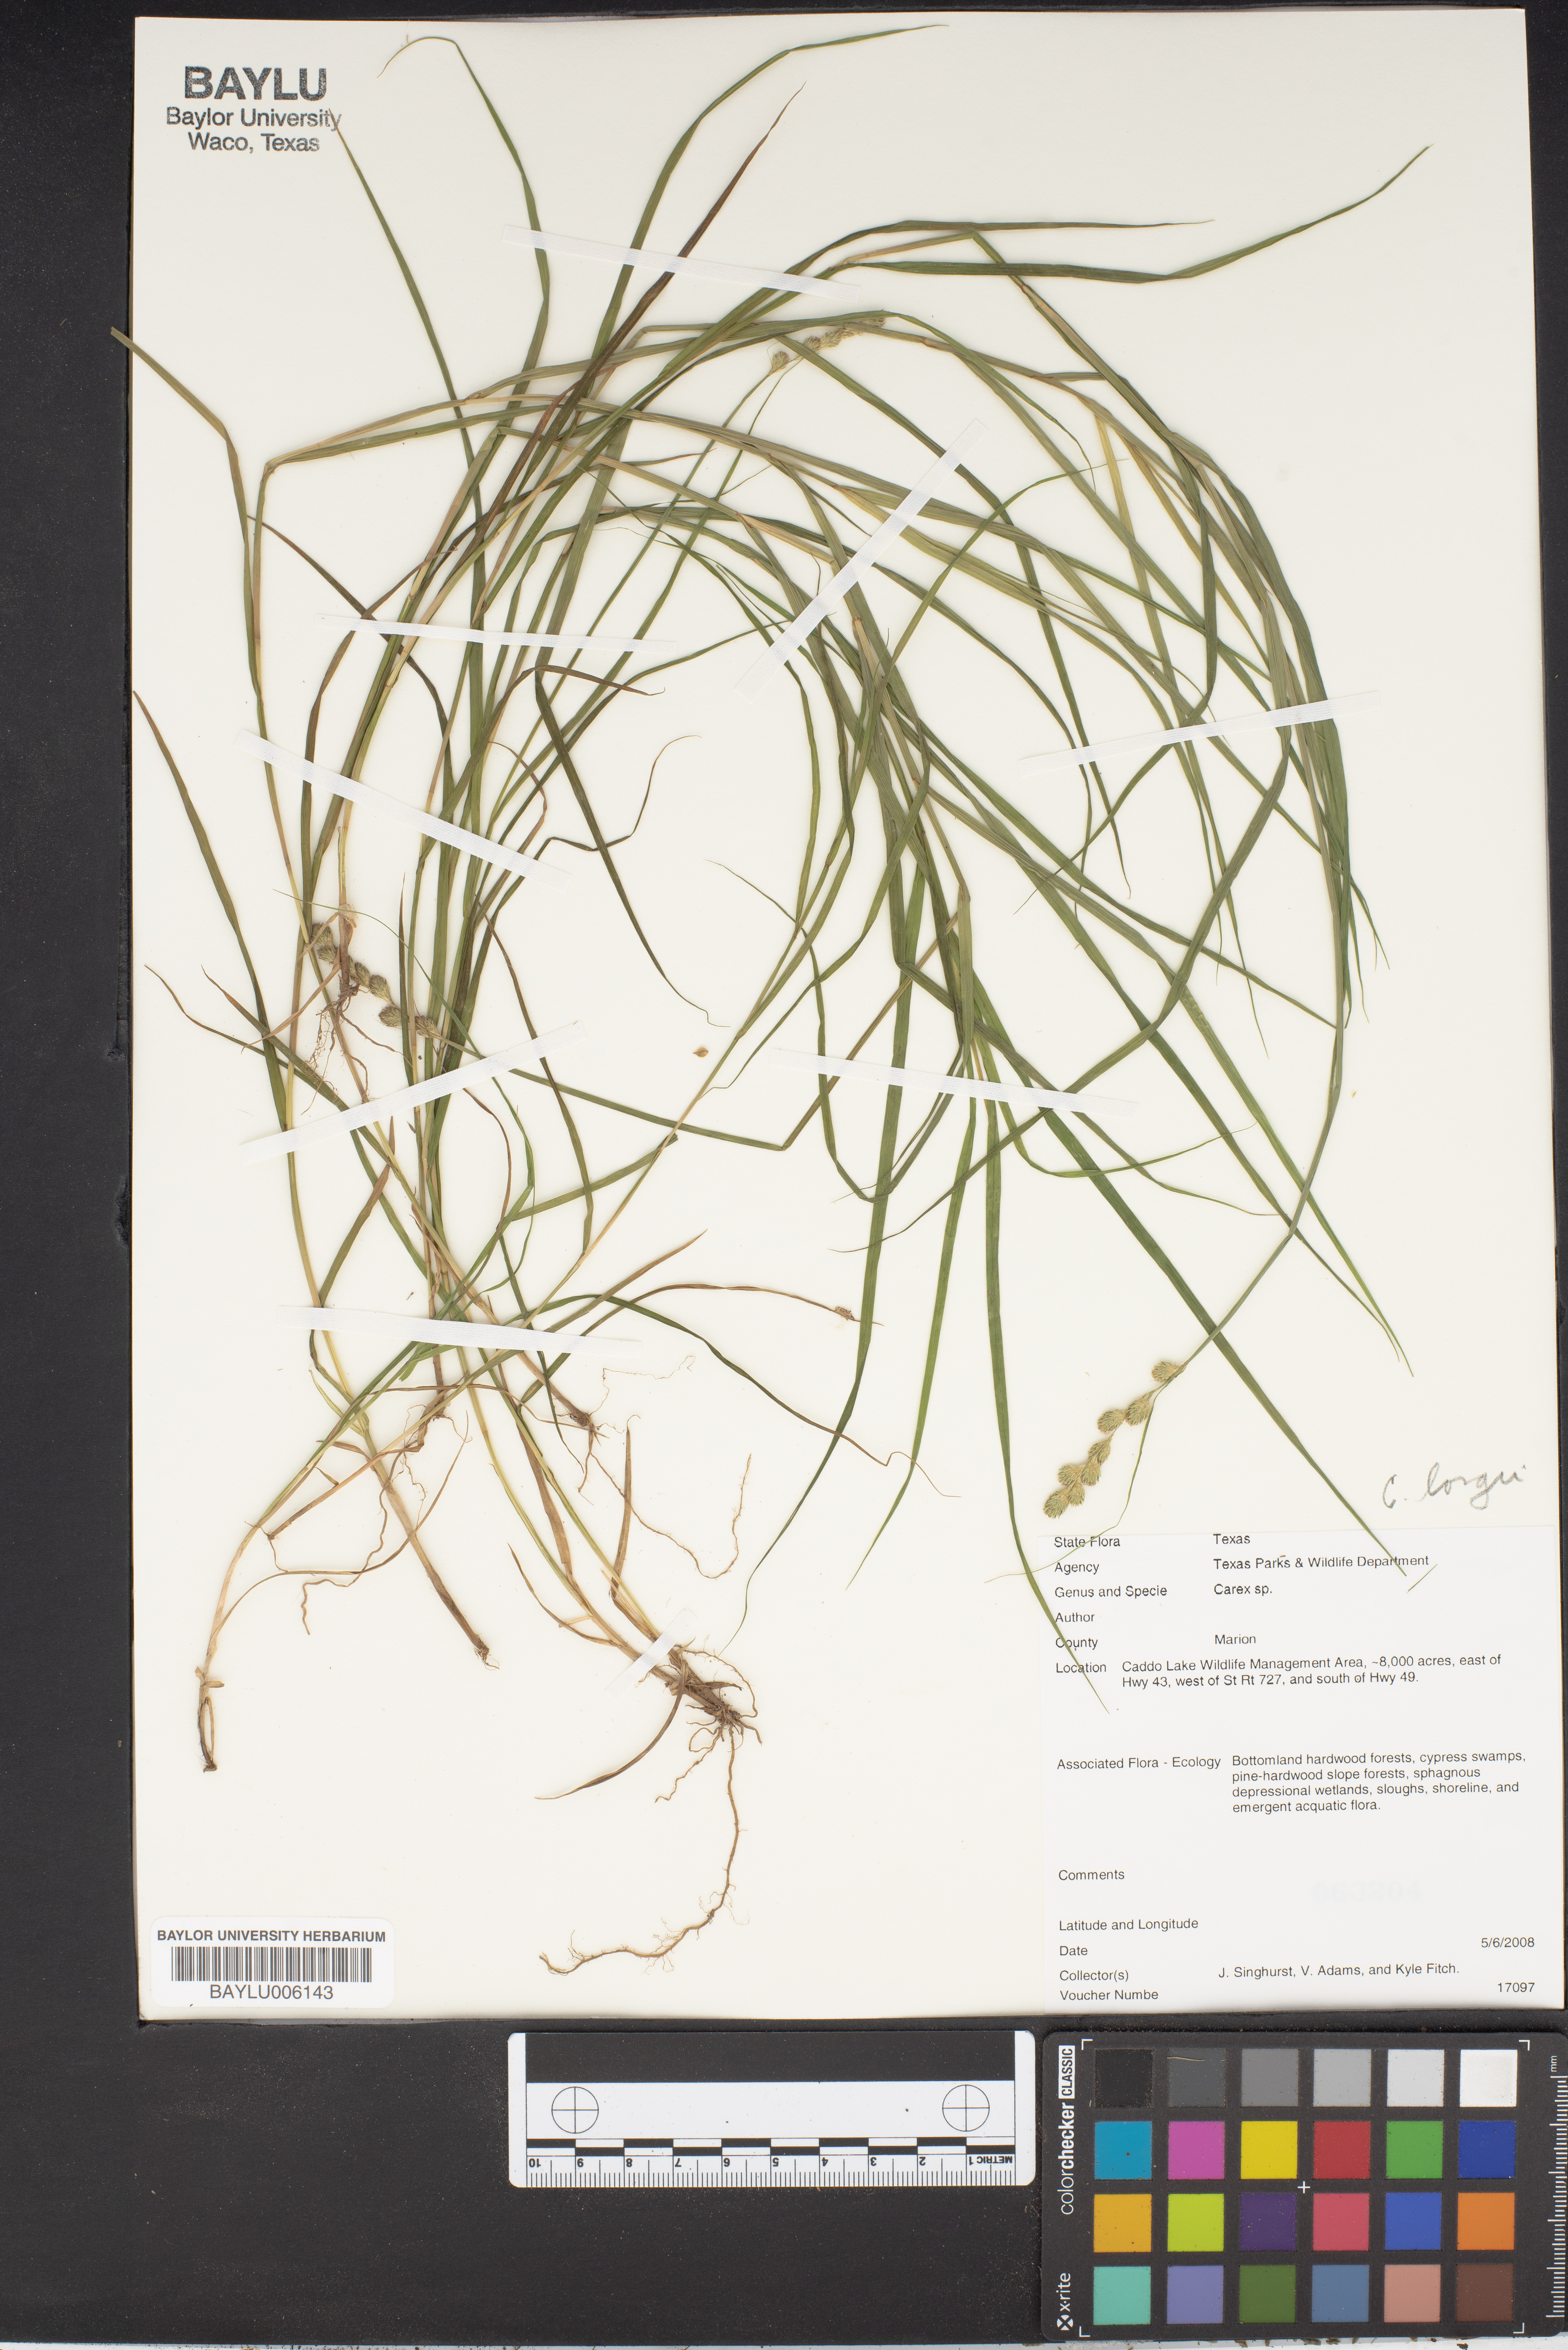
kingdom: Plantae
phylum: Tracheophyta
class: Liliopsida
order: Poales
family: Cyperaceae
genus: Carex
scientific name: Carex longii
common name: Long's sedge
